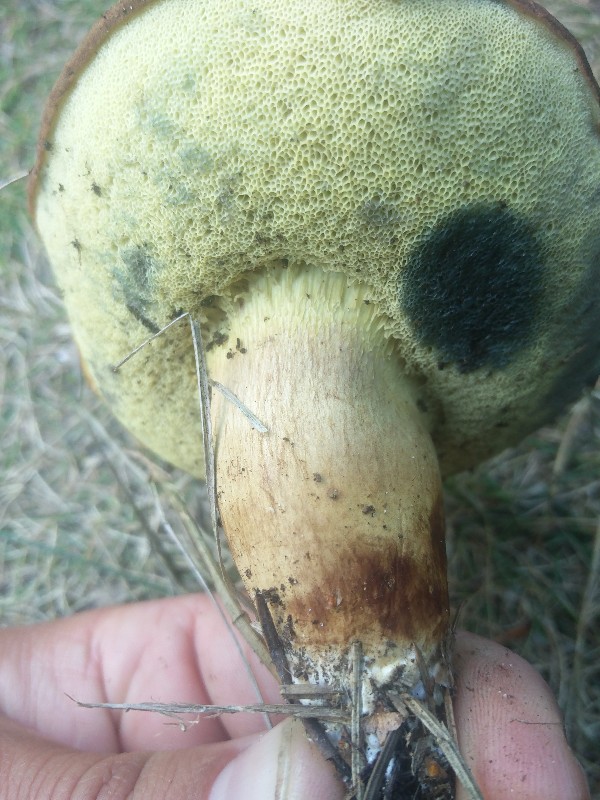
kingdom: Fungi
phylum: Basidiomycota
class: Agaricomycetes
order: Boletales
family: Boletaceae
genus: Imleria
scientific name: Imleria badia
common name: brunstokket rørhat
